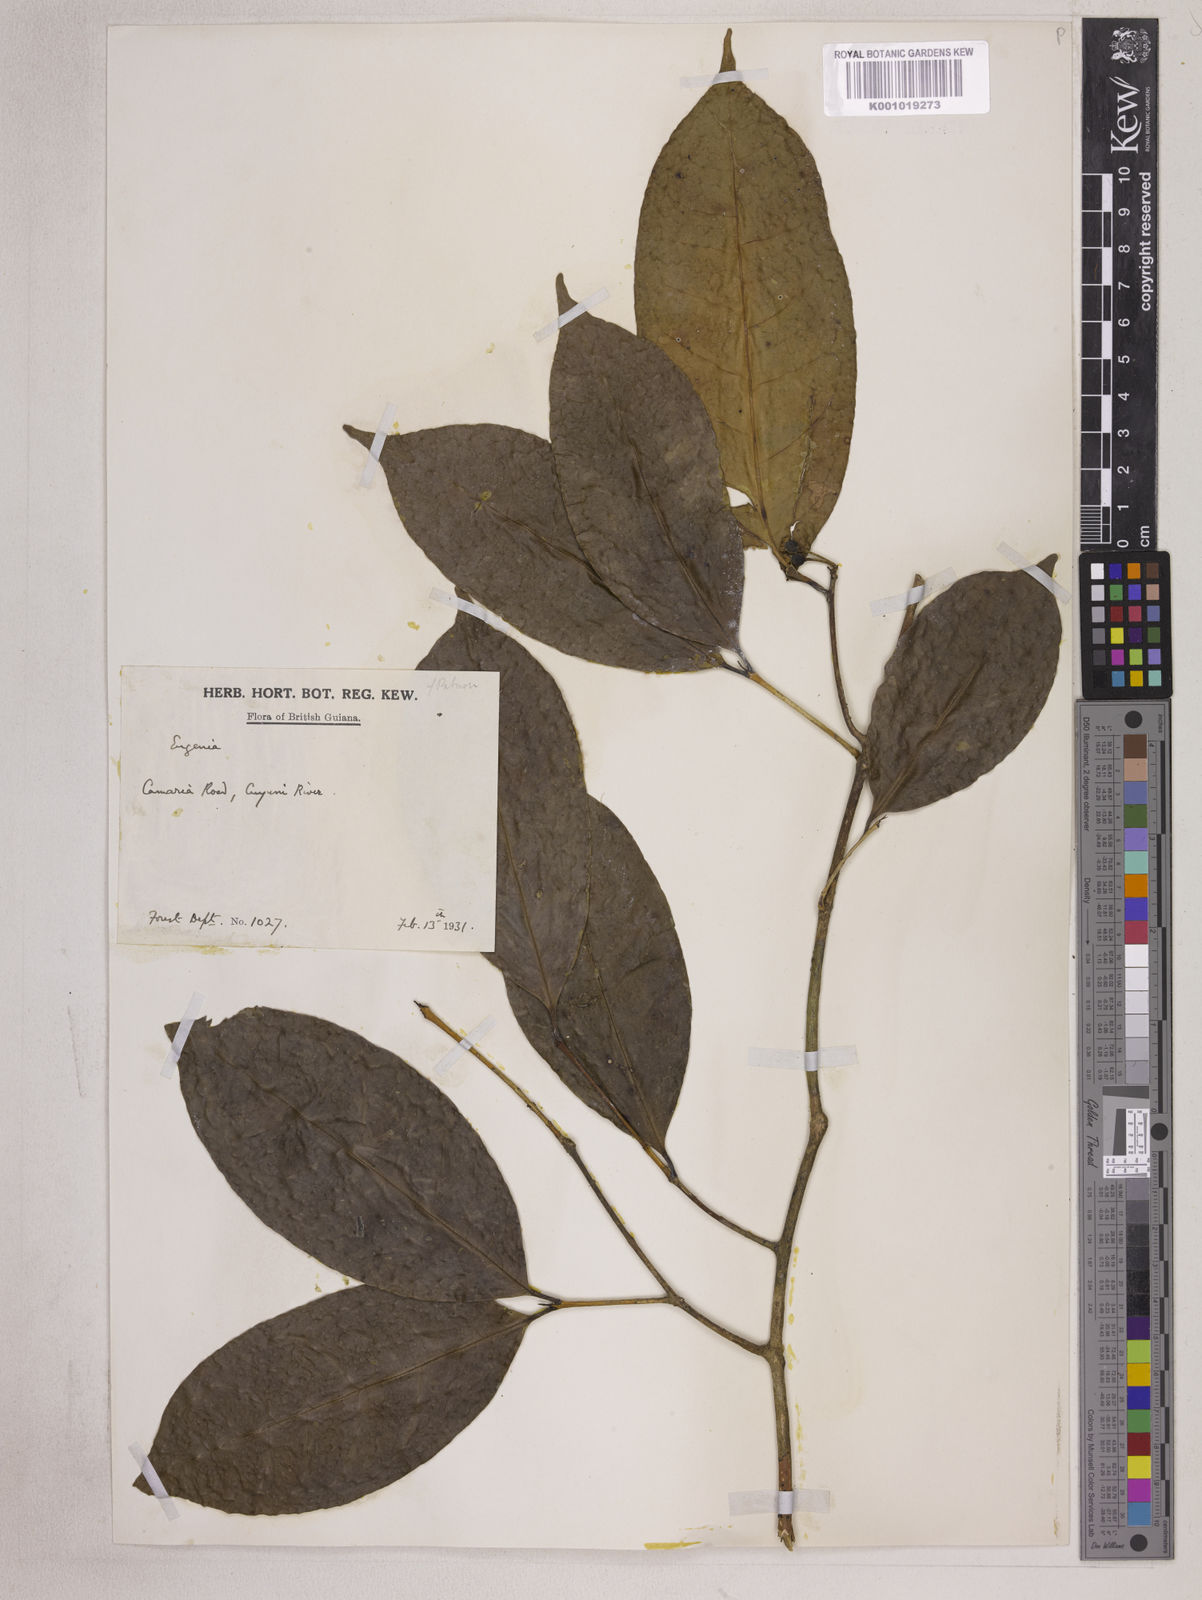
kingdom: Plantae
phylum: Tracheophyta
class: Magnoliopsida
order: Myrtales
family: Myrtaceae
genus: Eugenia
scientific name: Eugenia patrisii
